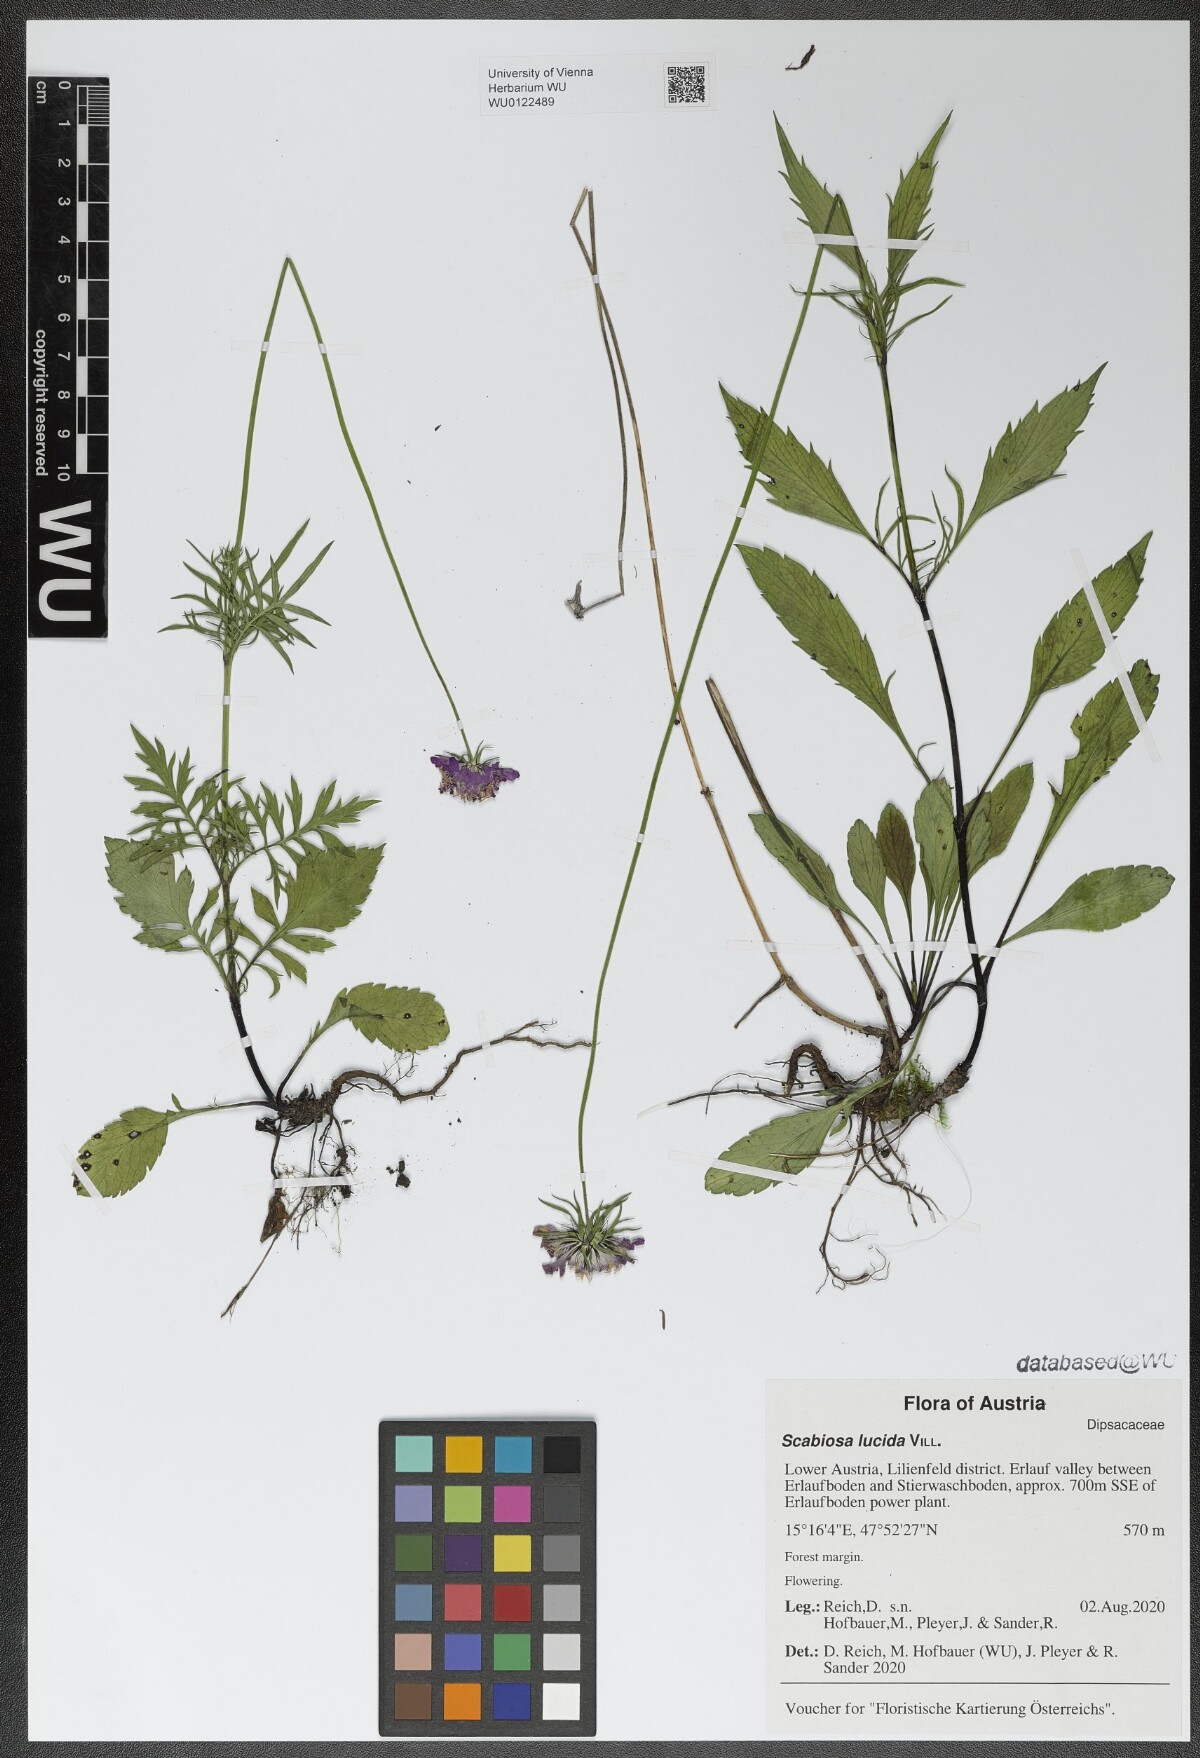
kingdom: Plantae
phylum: Tracheophyta
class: Magnoliopsida
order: Dipsacales
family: Caprifoliaceae
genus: Scabiosa
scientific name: Scabiosa lucida
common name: Shining scabious
